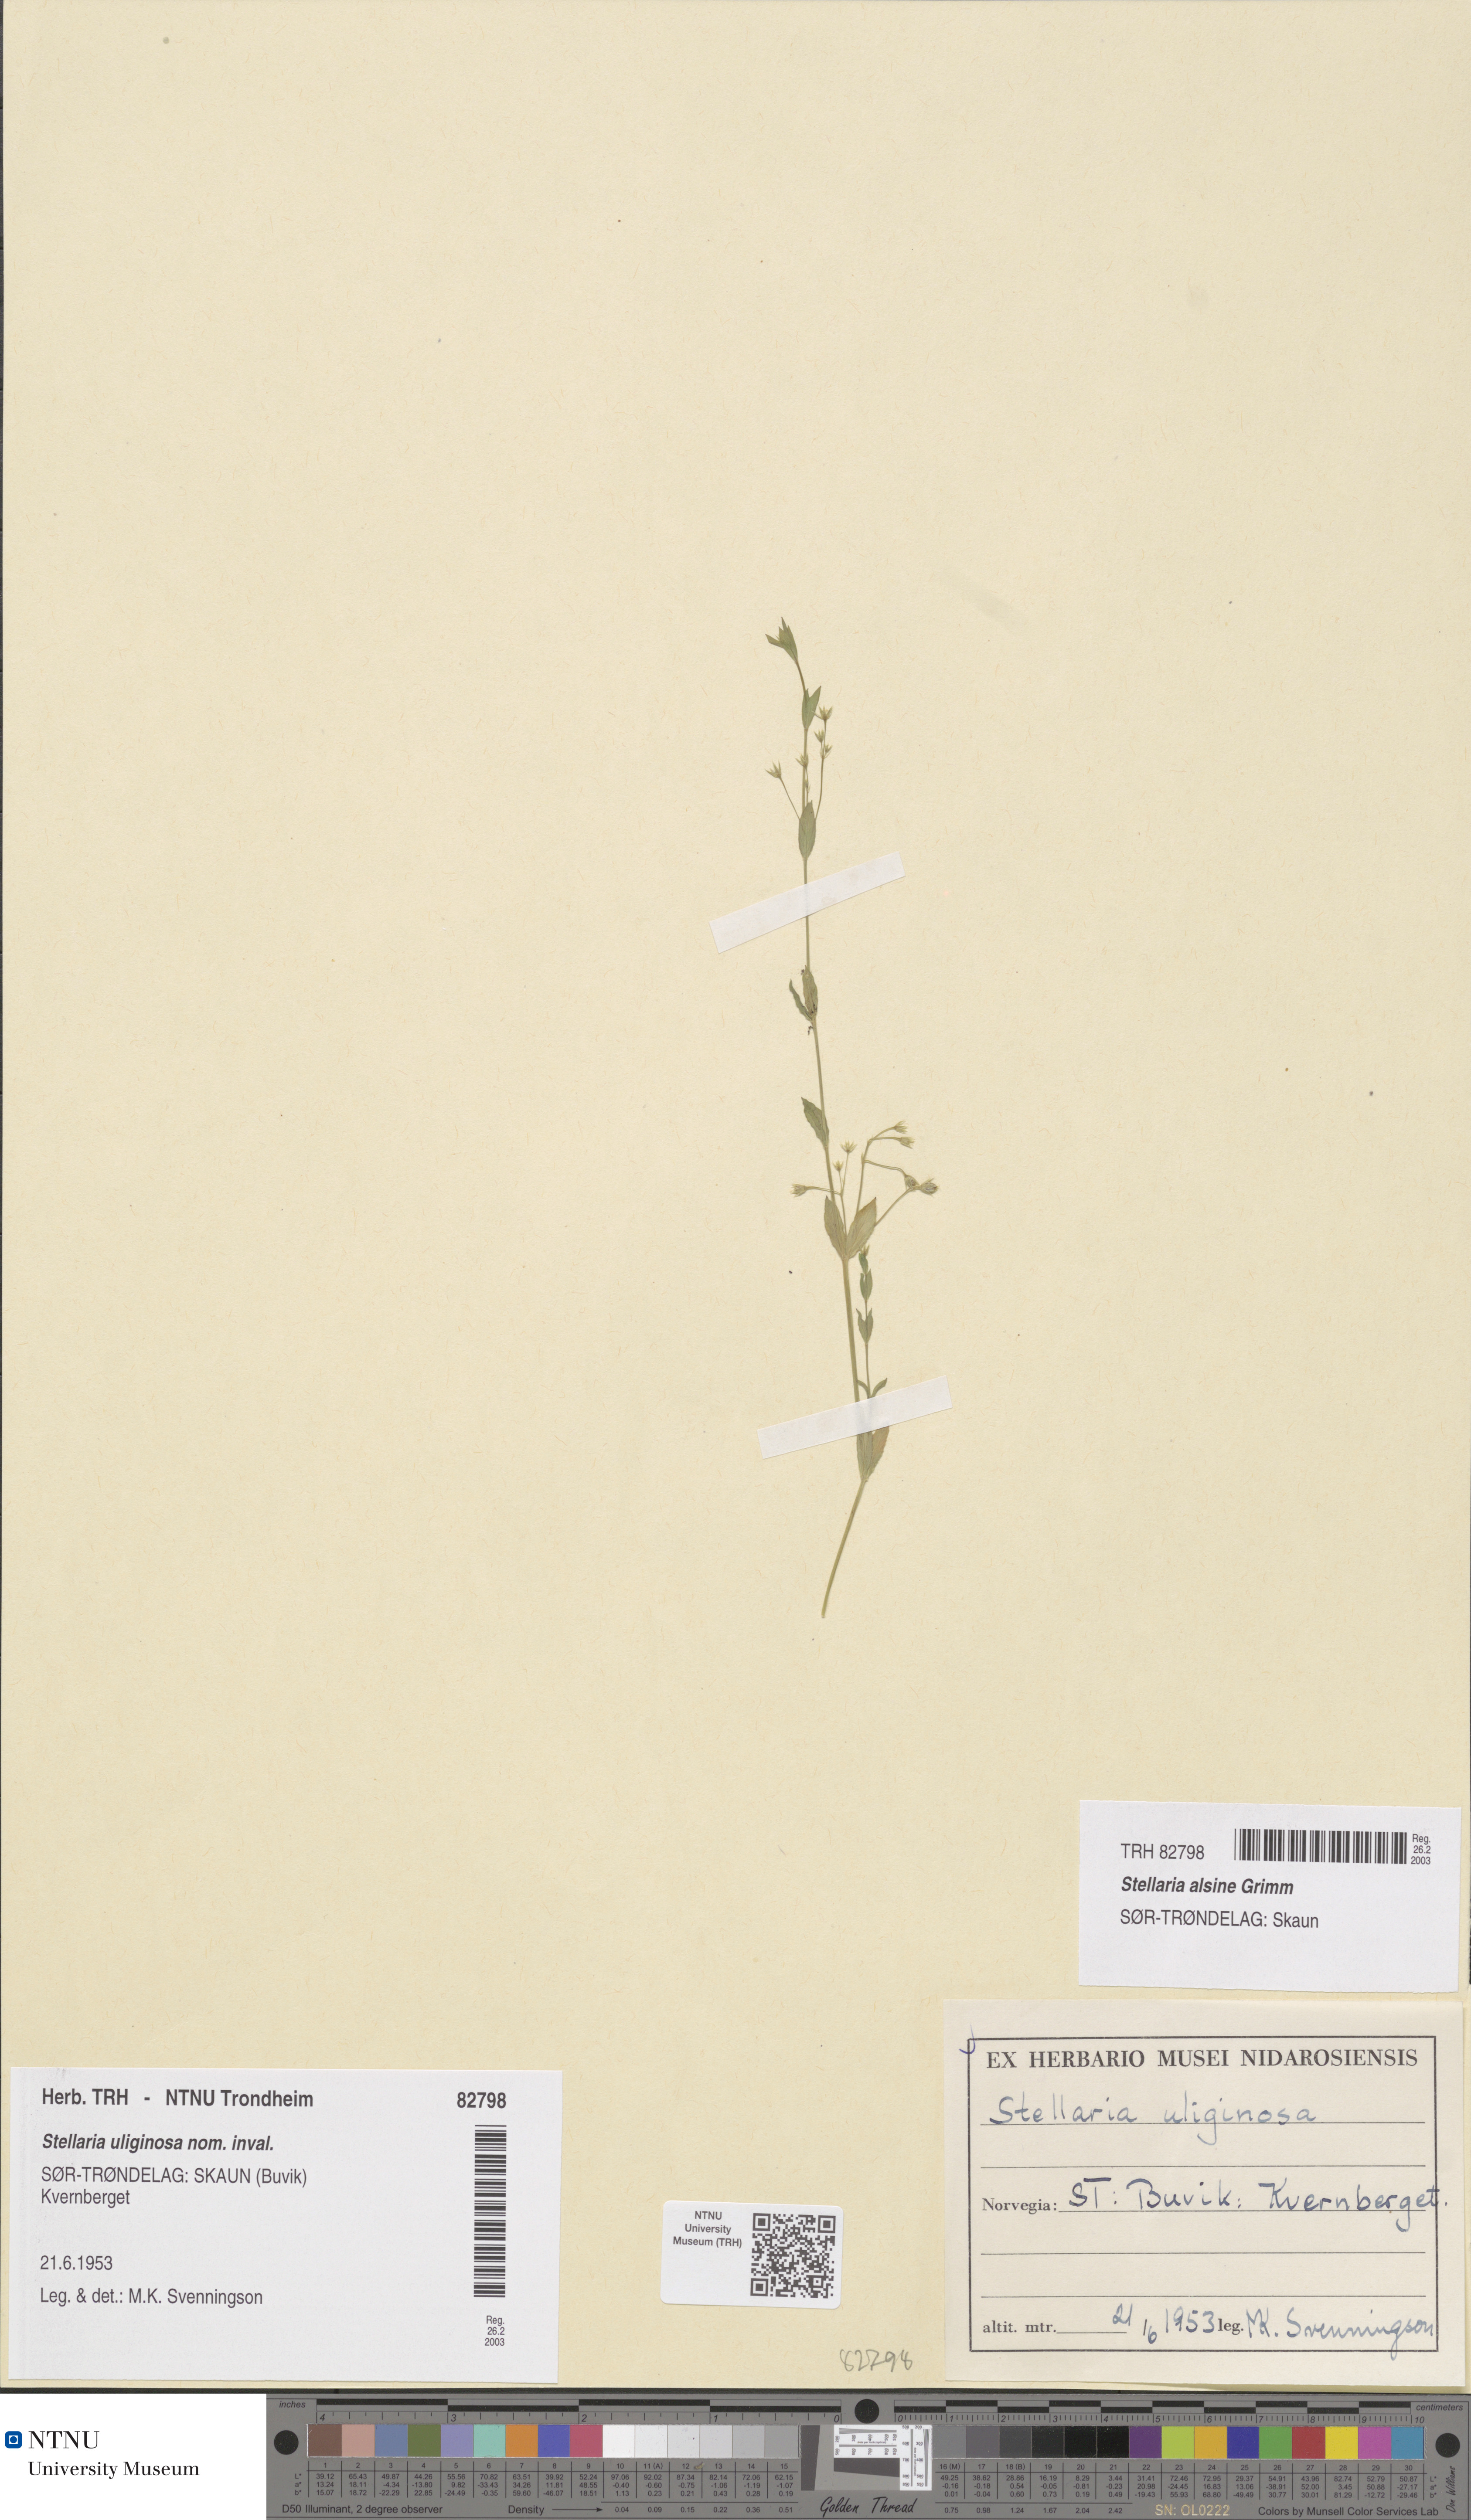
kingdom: Plantae
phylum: Tracheophyta
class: Magnoliopsida
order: Caryophyllales
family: Caryophyllaceae
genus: Stellaria
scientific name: Stellaria alsine
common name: Bog stitchwort
